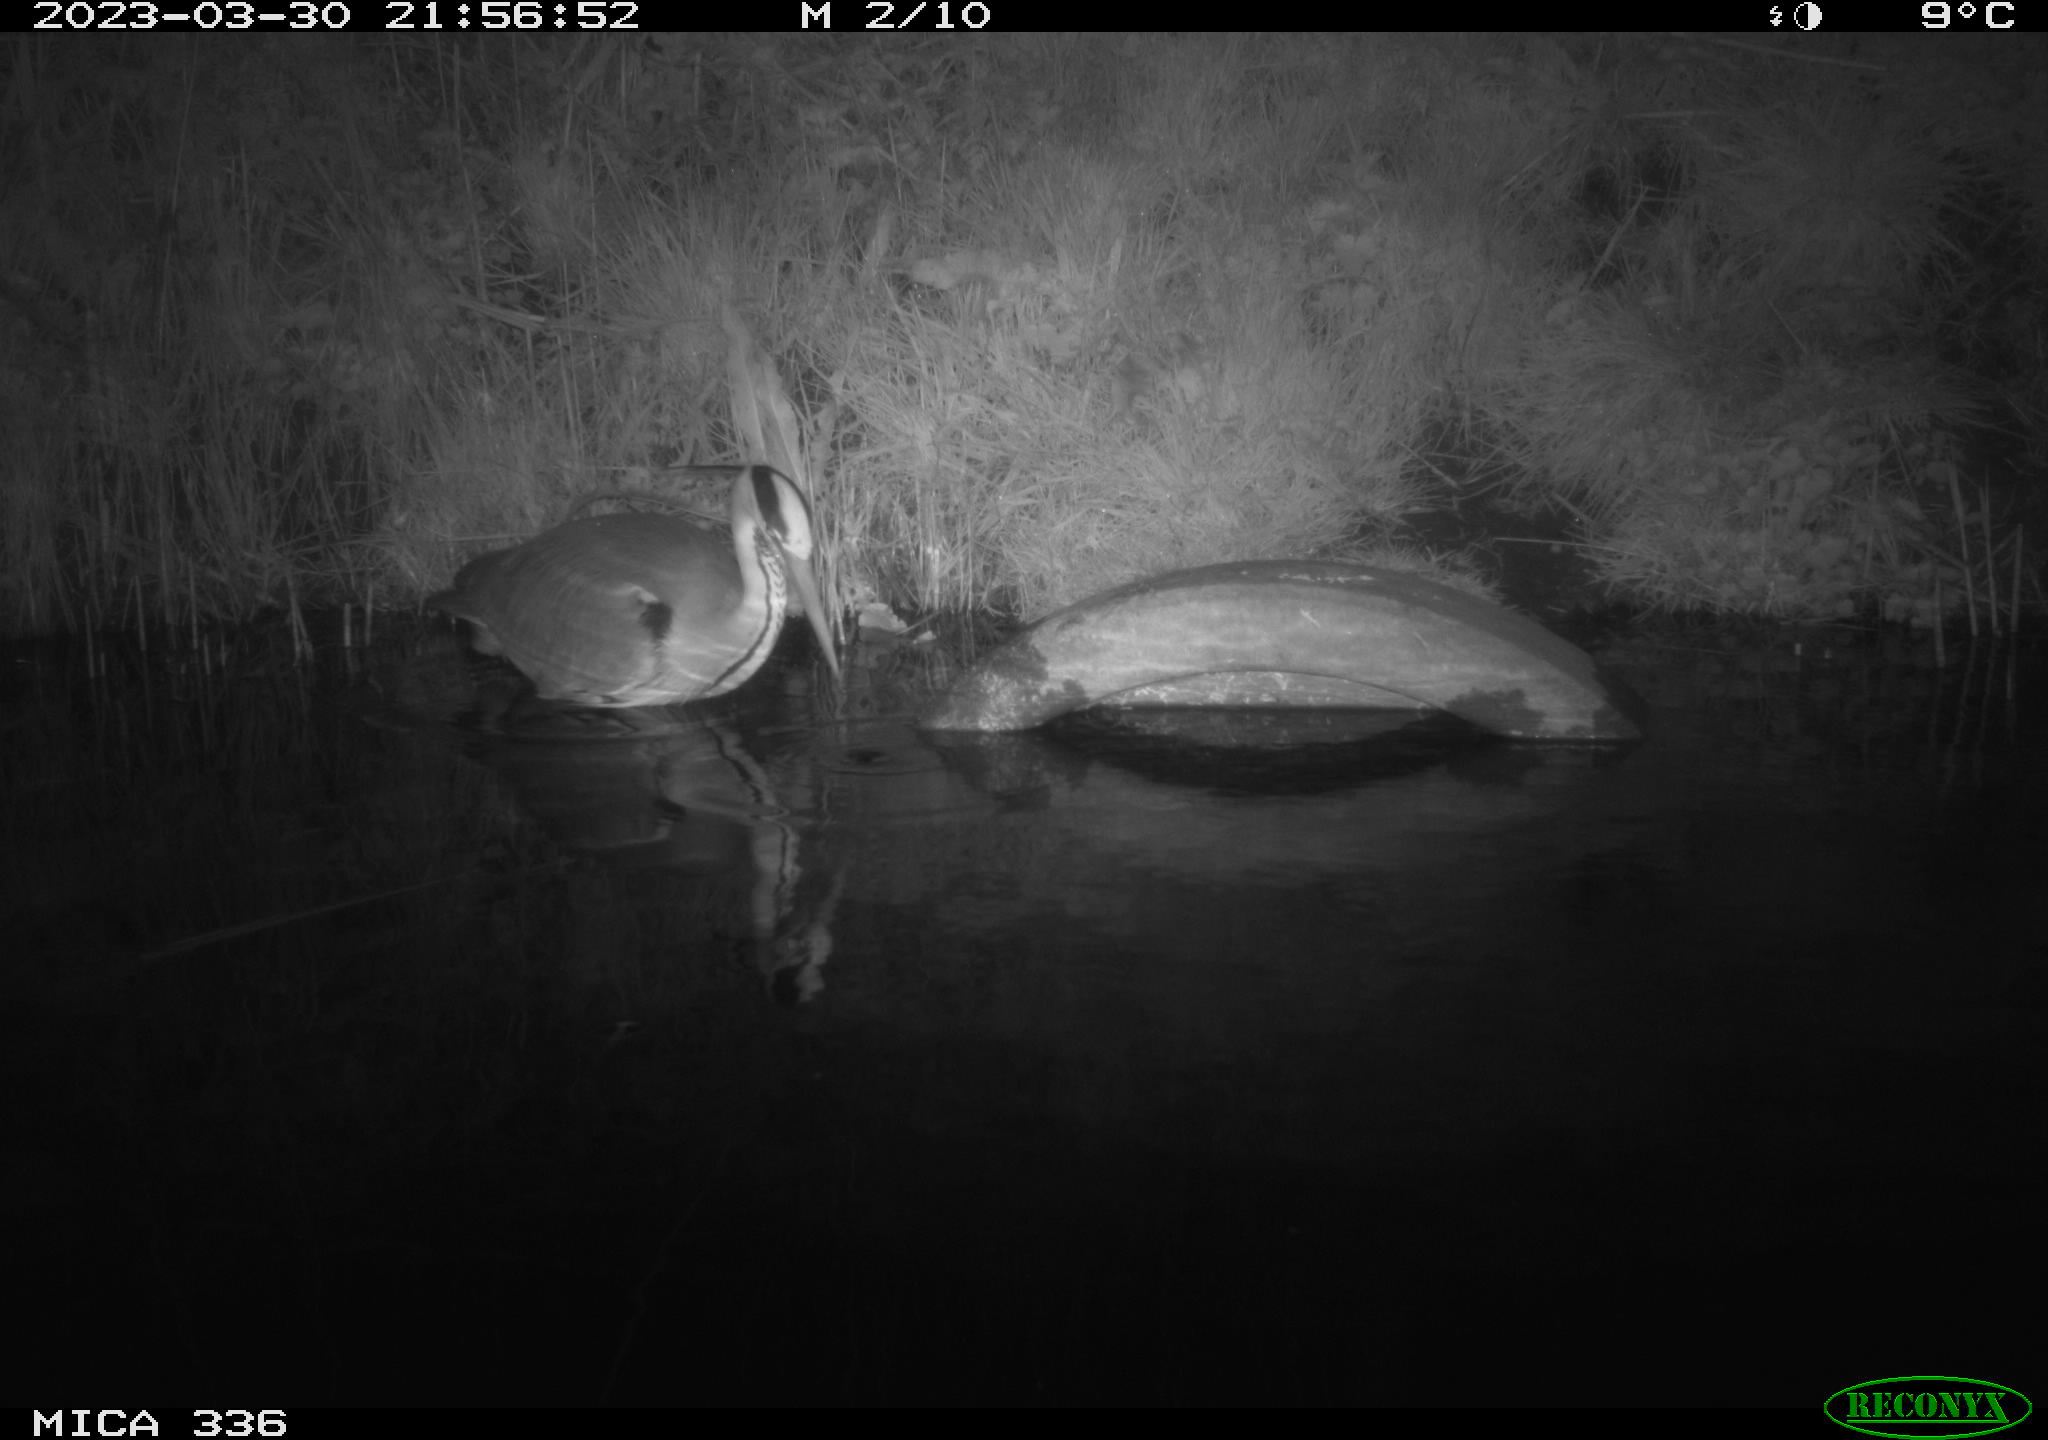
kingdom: Animalia
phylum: Chordata
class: Aves
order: Pelecaniformes
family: Ardeidae
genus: Ardea
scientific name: Ardea
